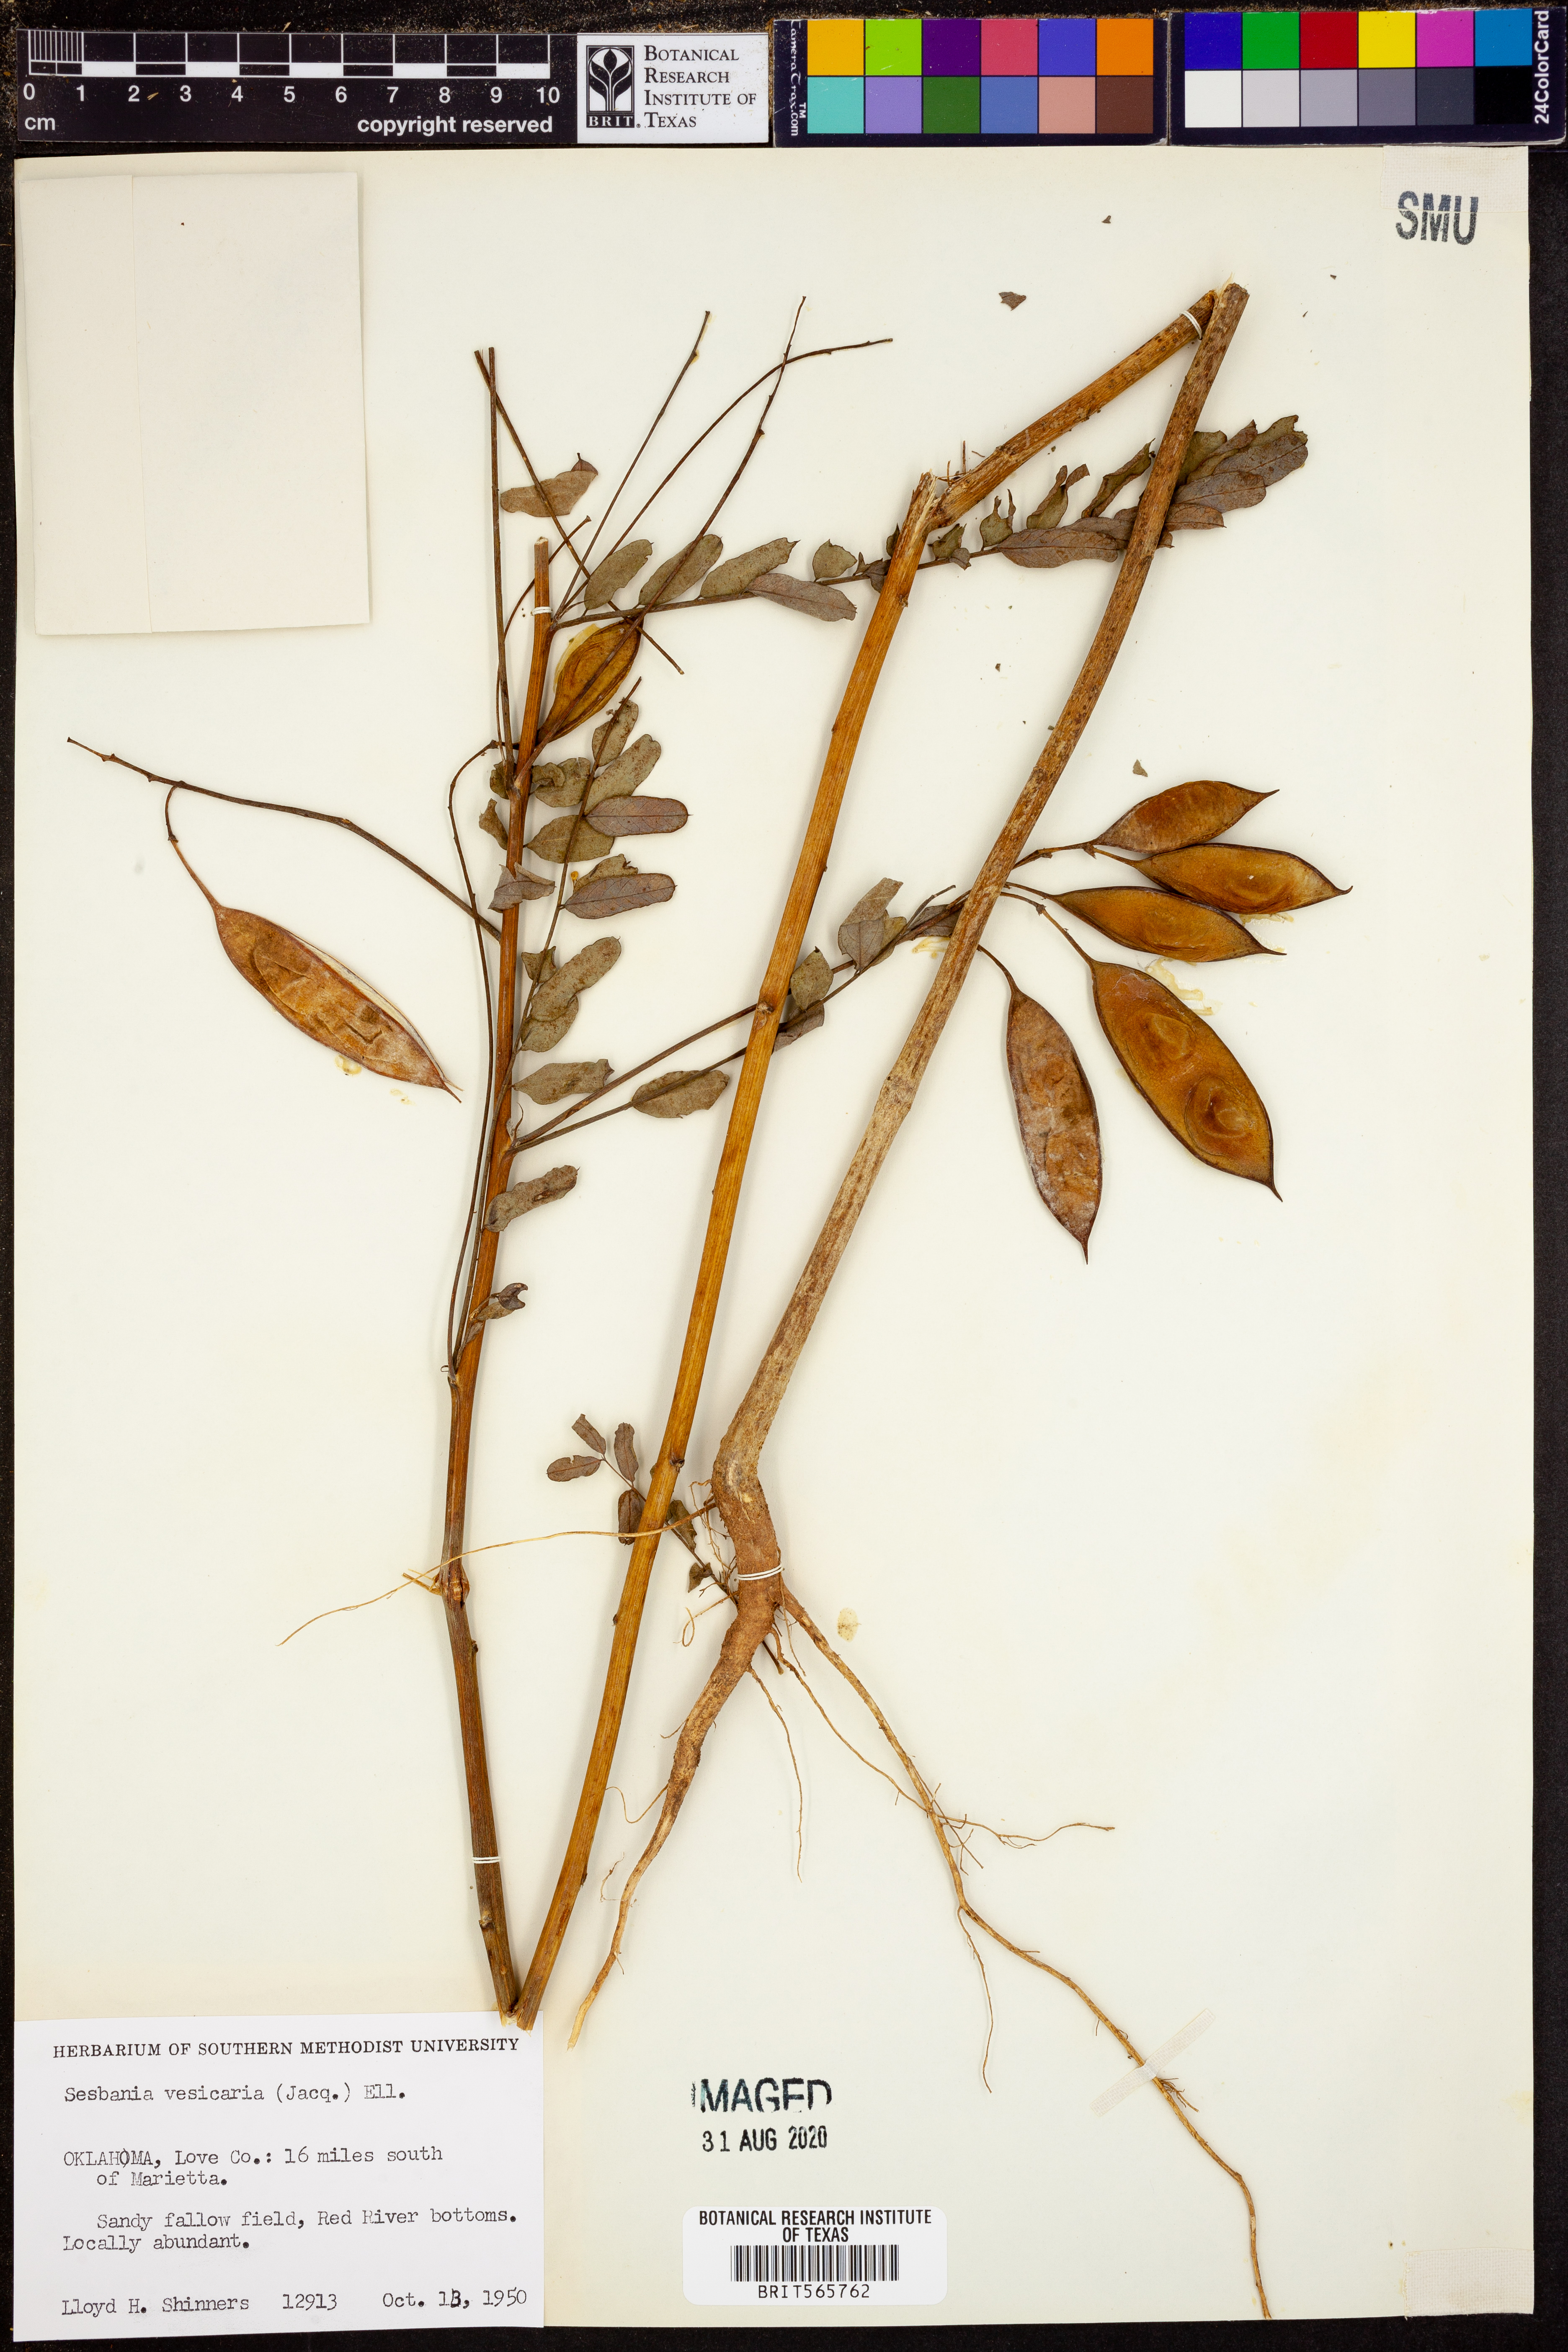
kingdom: Plantae
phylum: Tracheophyta
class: Magnoliopsida
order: Fabales
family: Fabaceae
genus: Sesbania
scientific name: Sesbania vesicaria
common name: Bagpod
